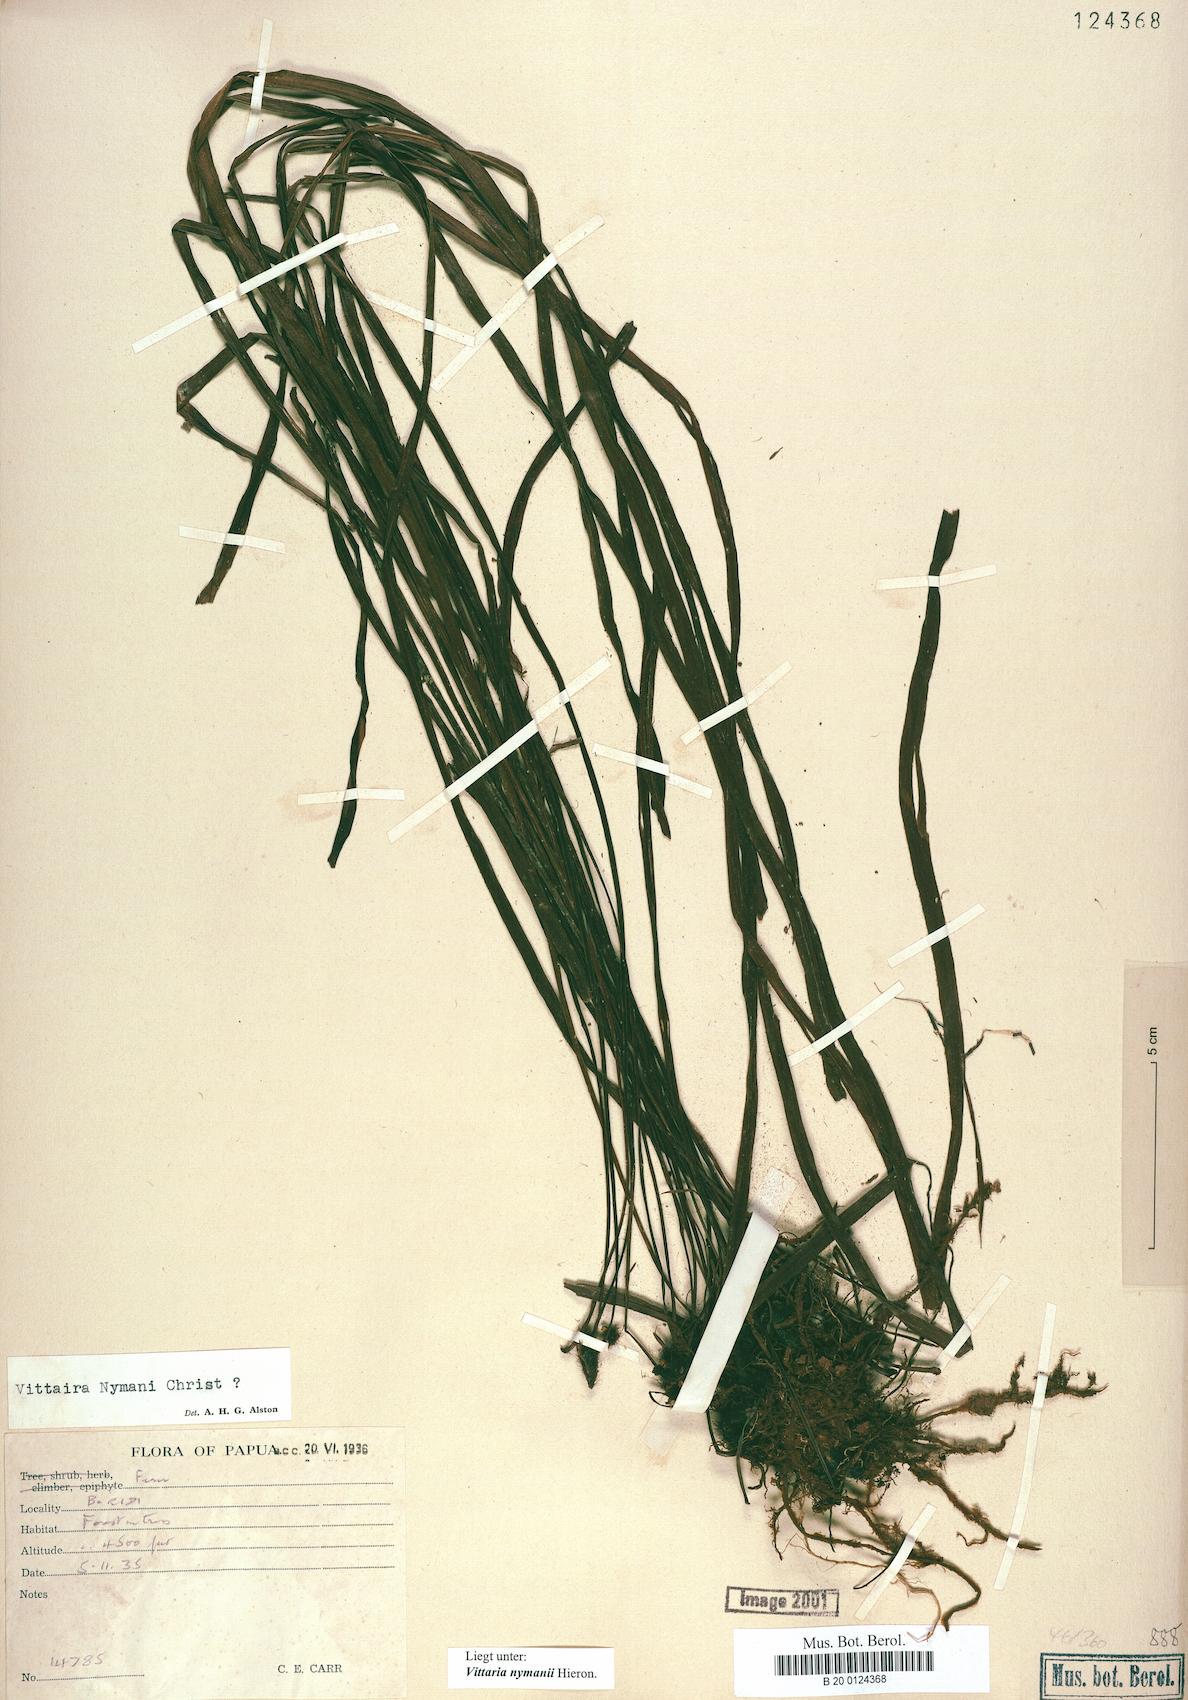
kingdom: Plantae
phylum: Tracheophyta
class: Polypodiopsida
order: Polypodiales
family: Pteridaceae
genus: Haplopteris
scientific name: Haplopteris elongata
